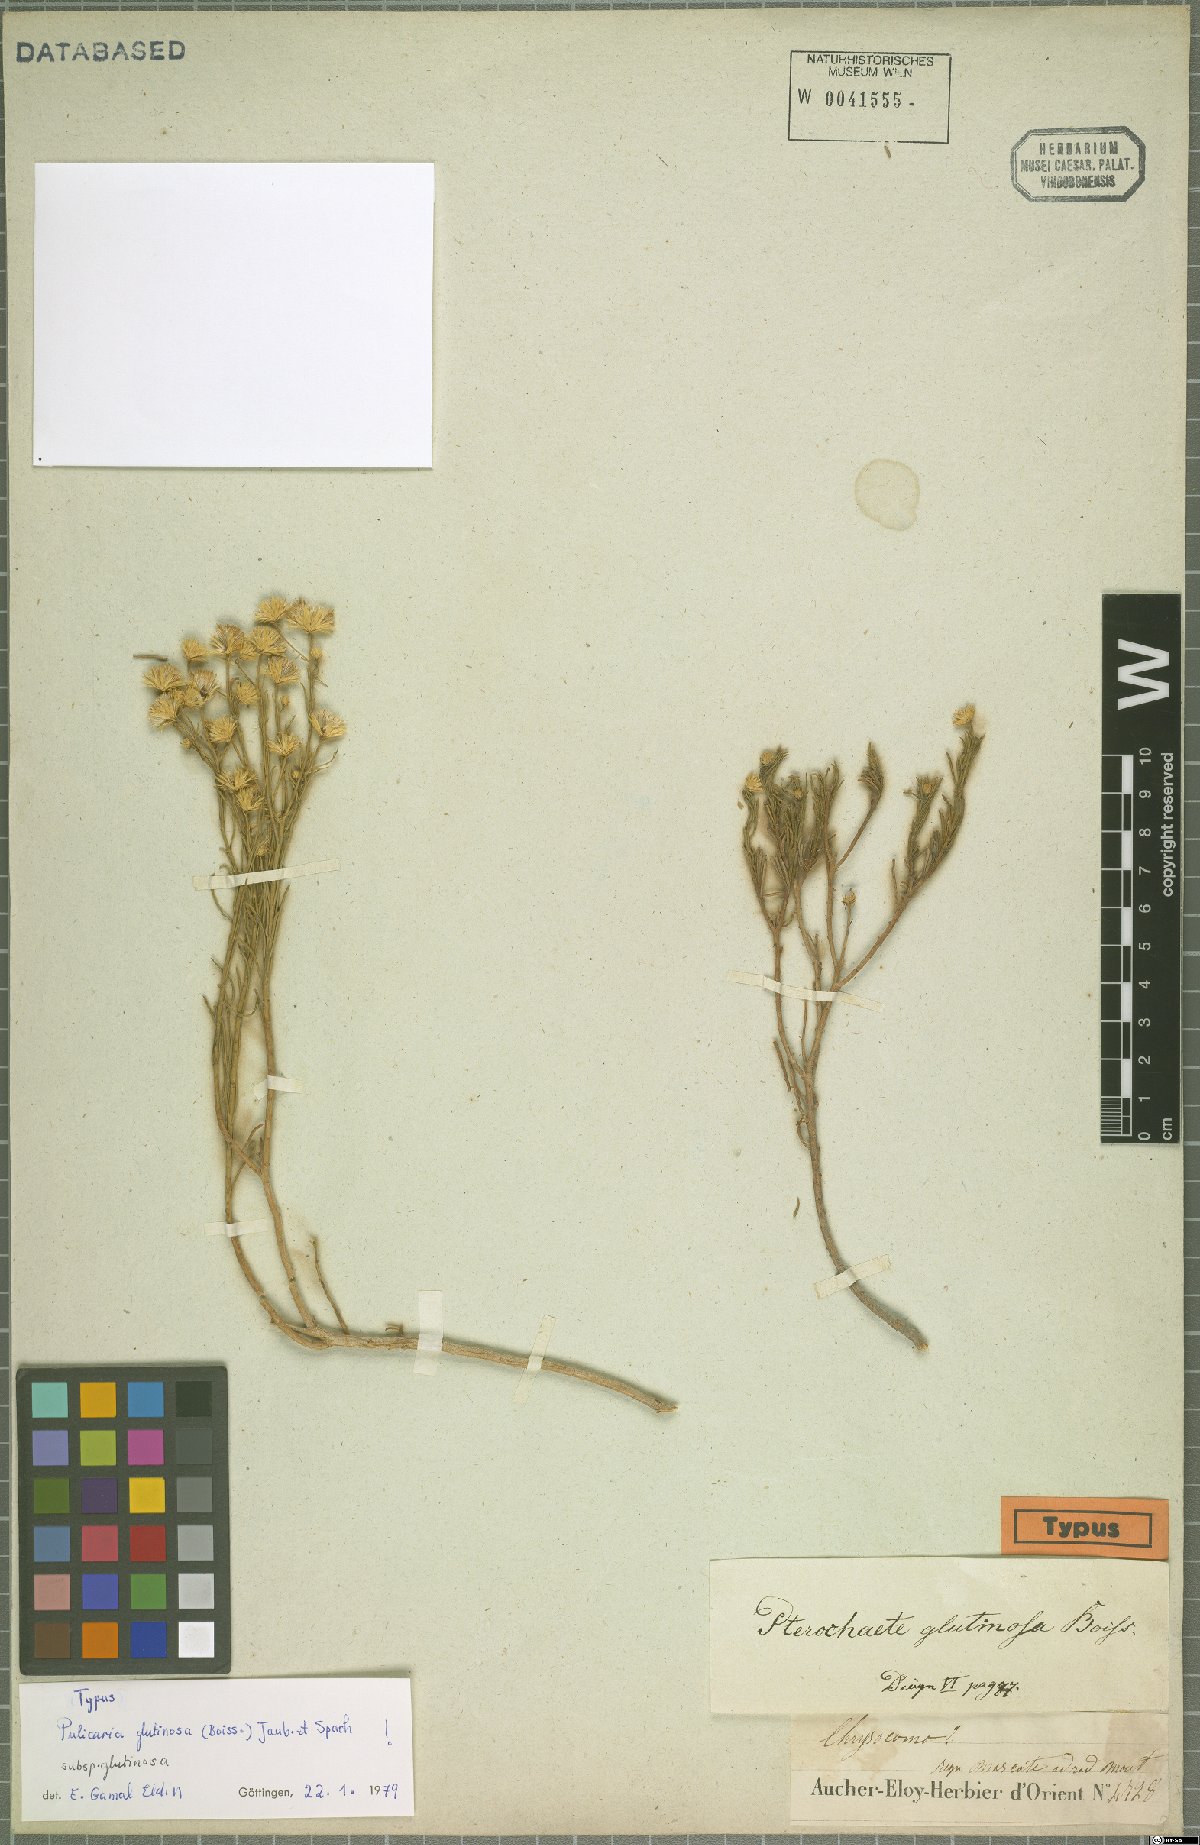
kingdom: Plantae
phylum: Tracheophyta
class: Magnoliopsida
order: Asterales
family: Asteraceae
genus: Pulicaria
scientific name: Pulicaria glutinosa
